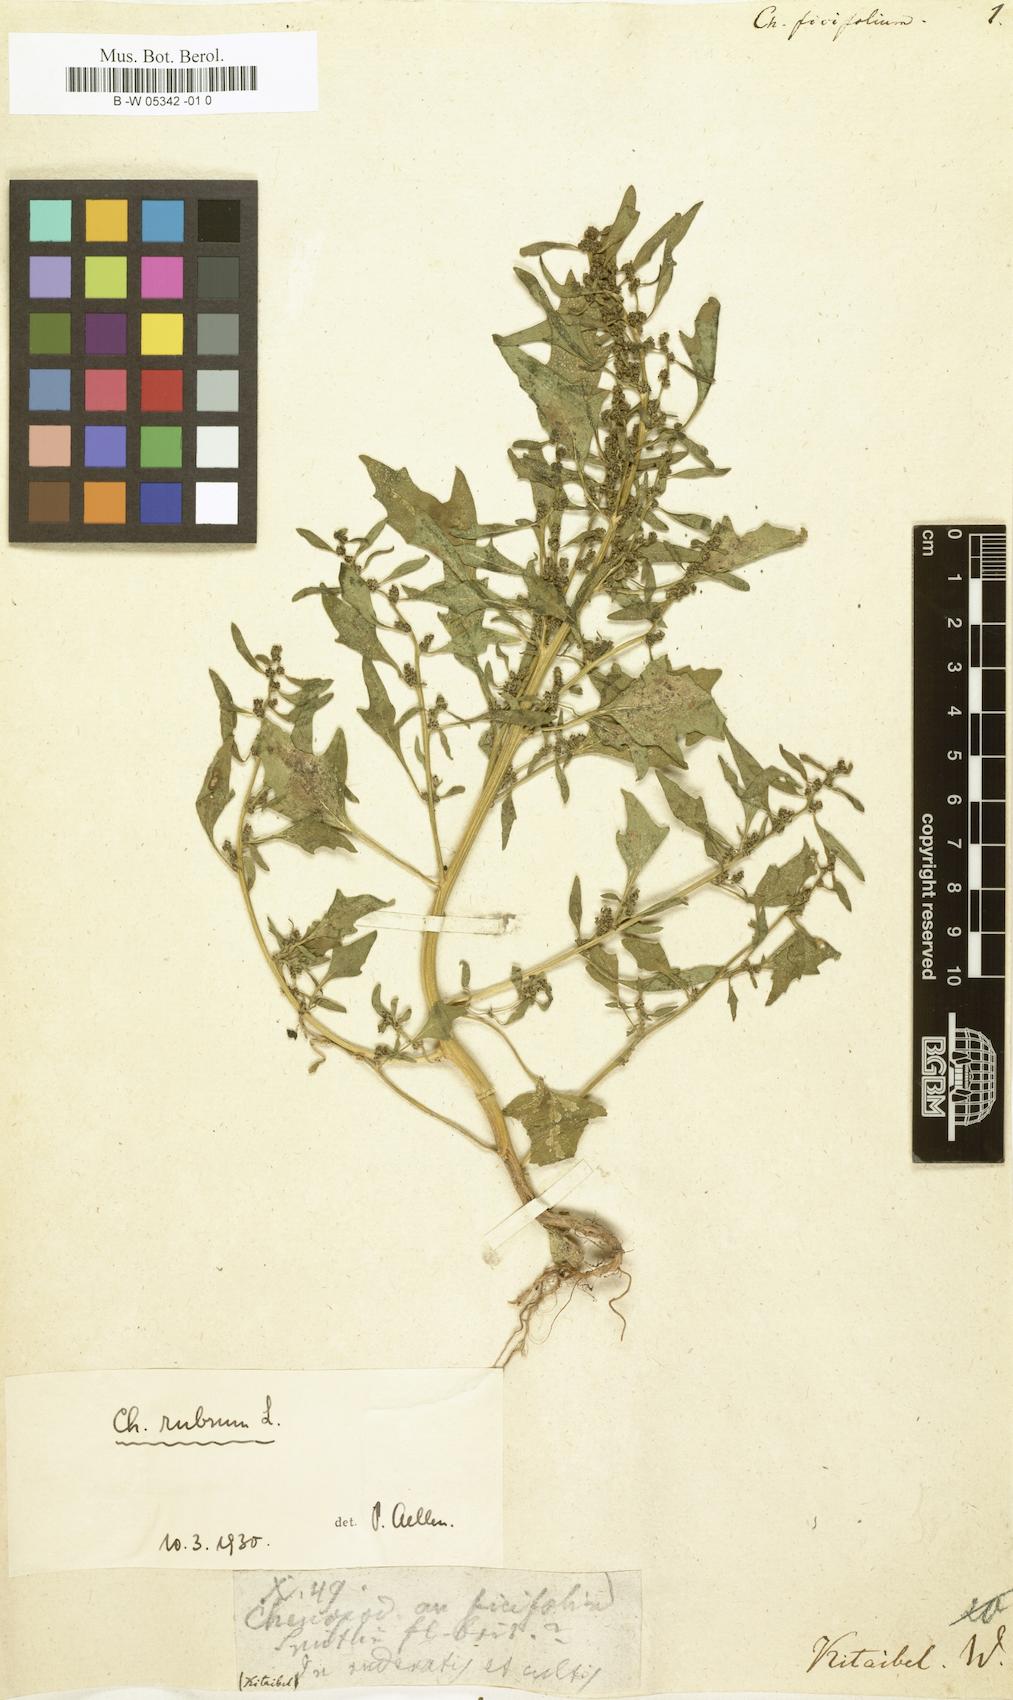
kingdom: Plantae
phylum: Tracheophyta
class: Magnoliopsida
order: Caryophyllales
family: Amaranthaceae
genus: Chenopodium
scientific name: Chenopodium ficifolium
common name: Fig-leaved goosefoot
